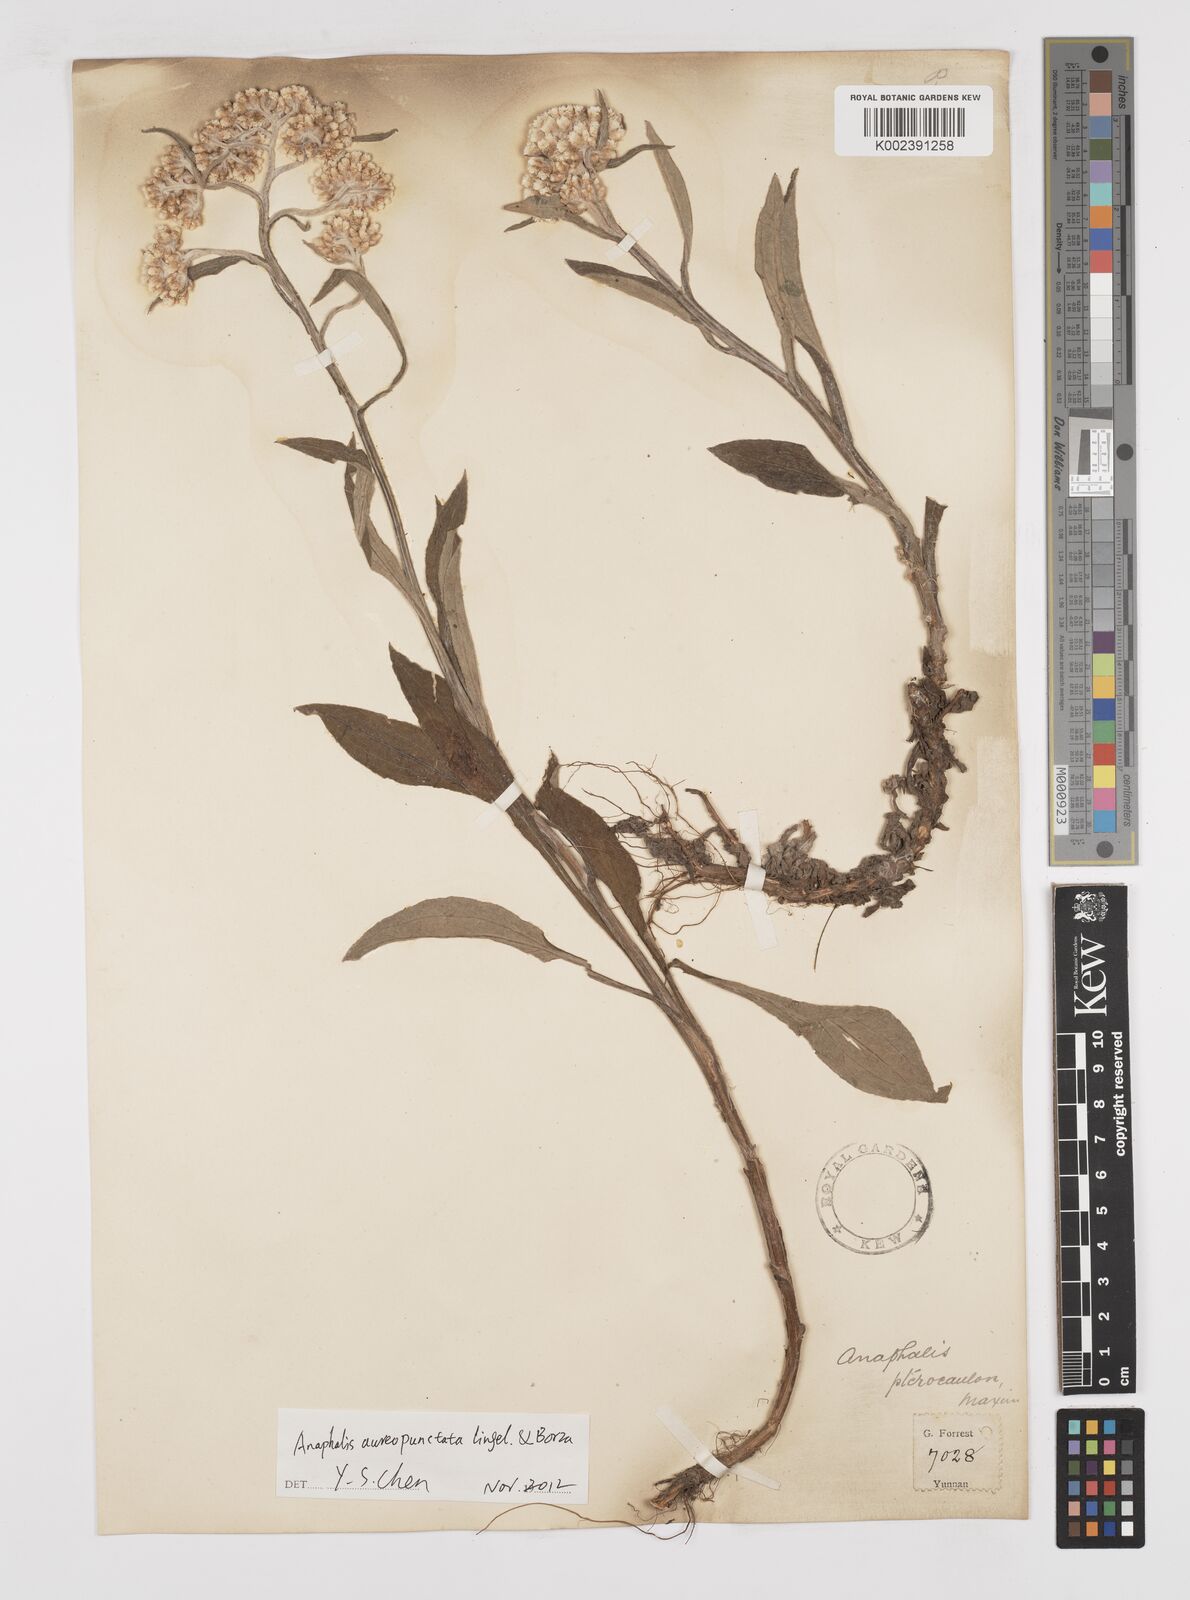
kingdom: Plantae
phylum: Tracheophyta
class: Magnoliopsida
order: Asterales
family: Asteraceae
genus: Anaphalis
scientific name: Anaphalis sinica
